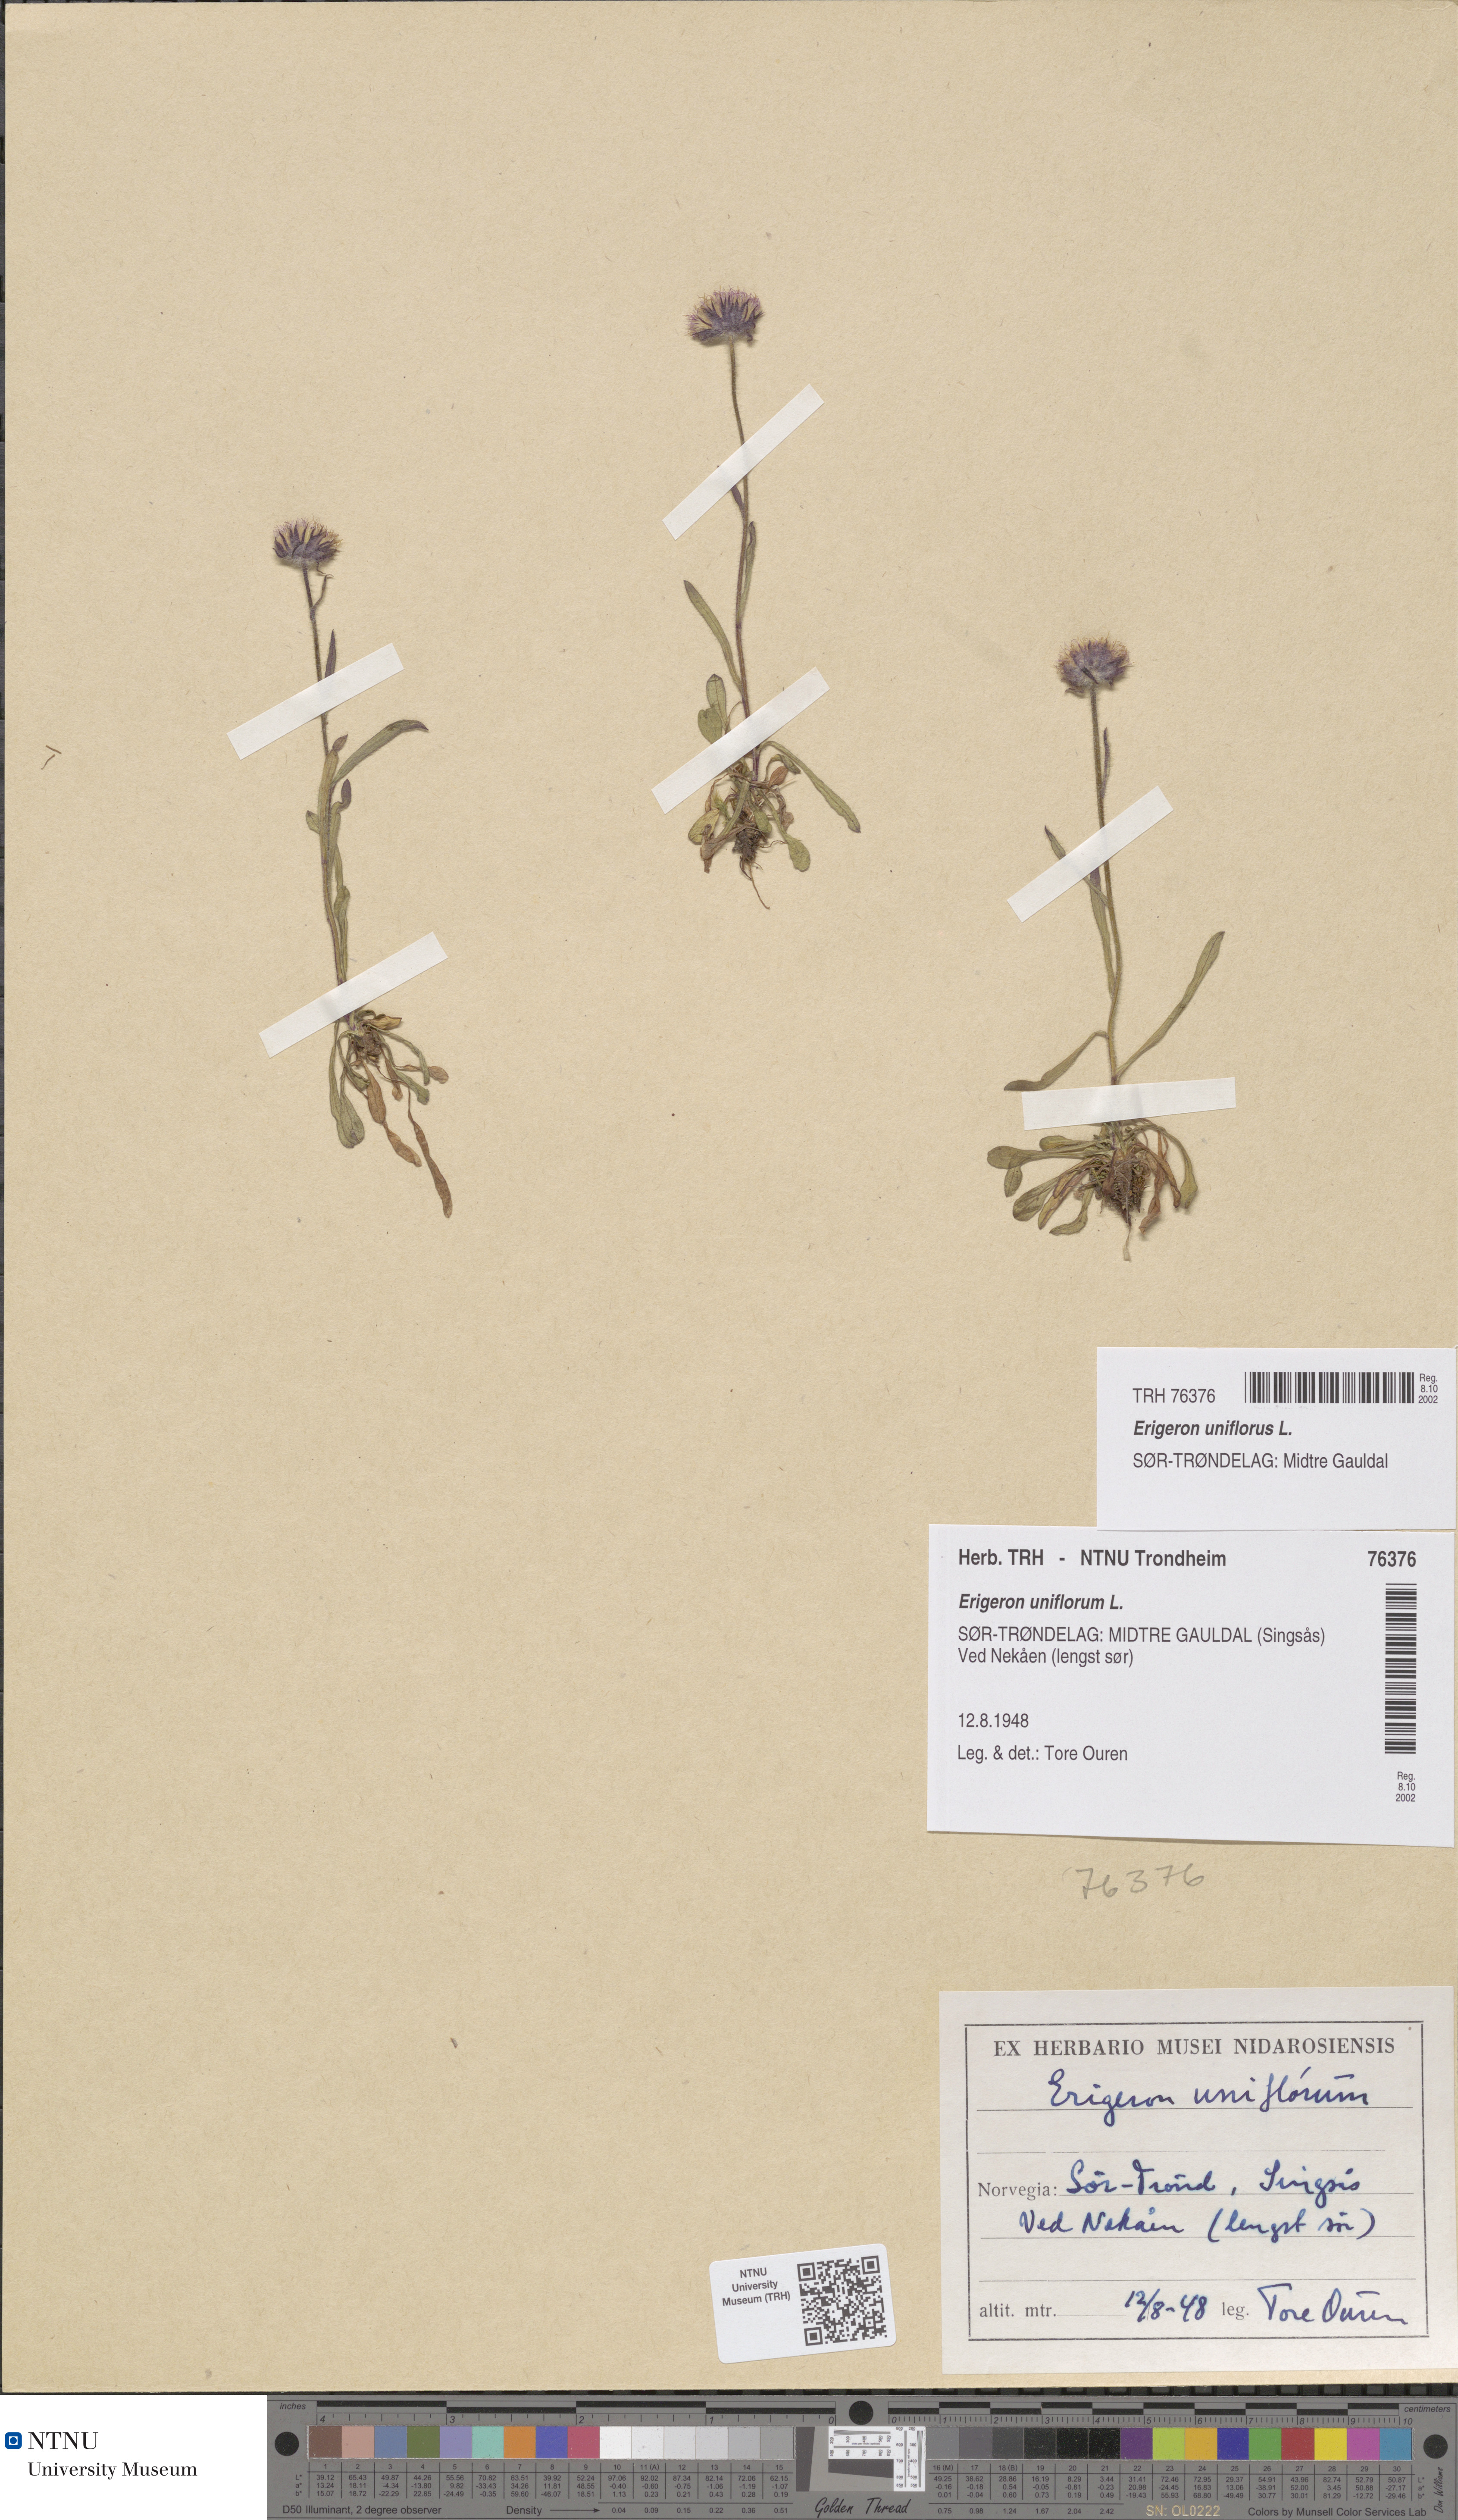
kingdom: Plantae
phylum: Tracheophyta
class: Magnoliopsida
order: Asterales
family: Asteraceae
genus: Erigeron
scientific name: Erigeron uniflorus
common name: Northern daisy
